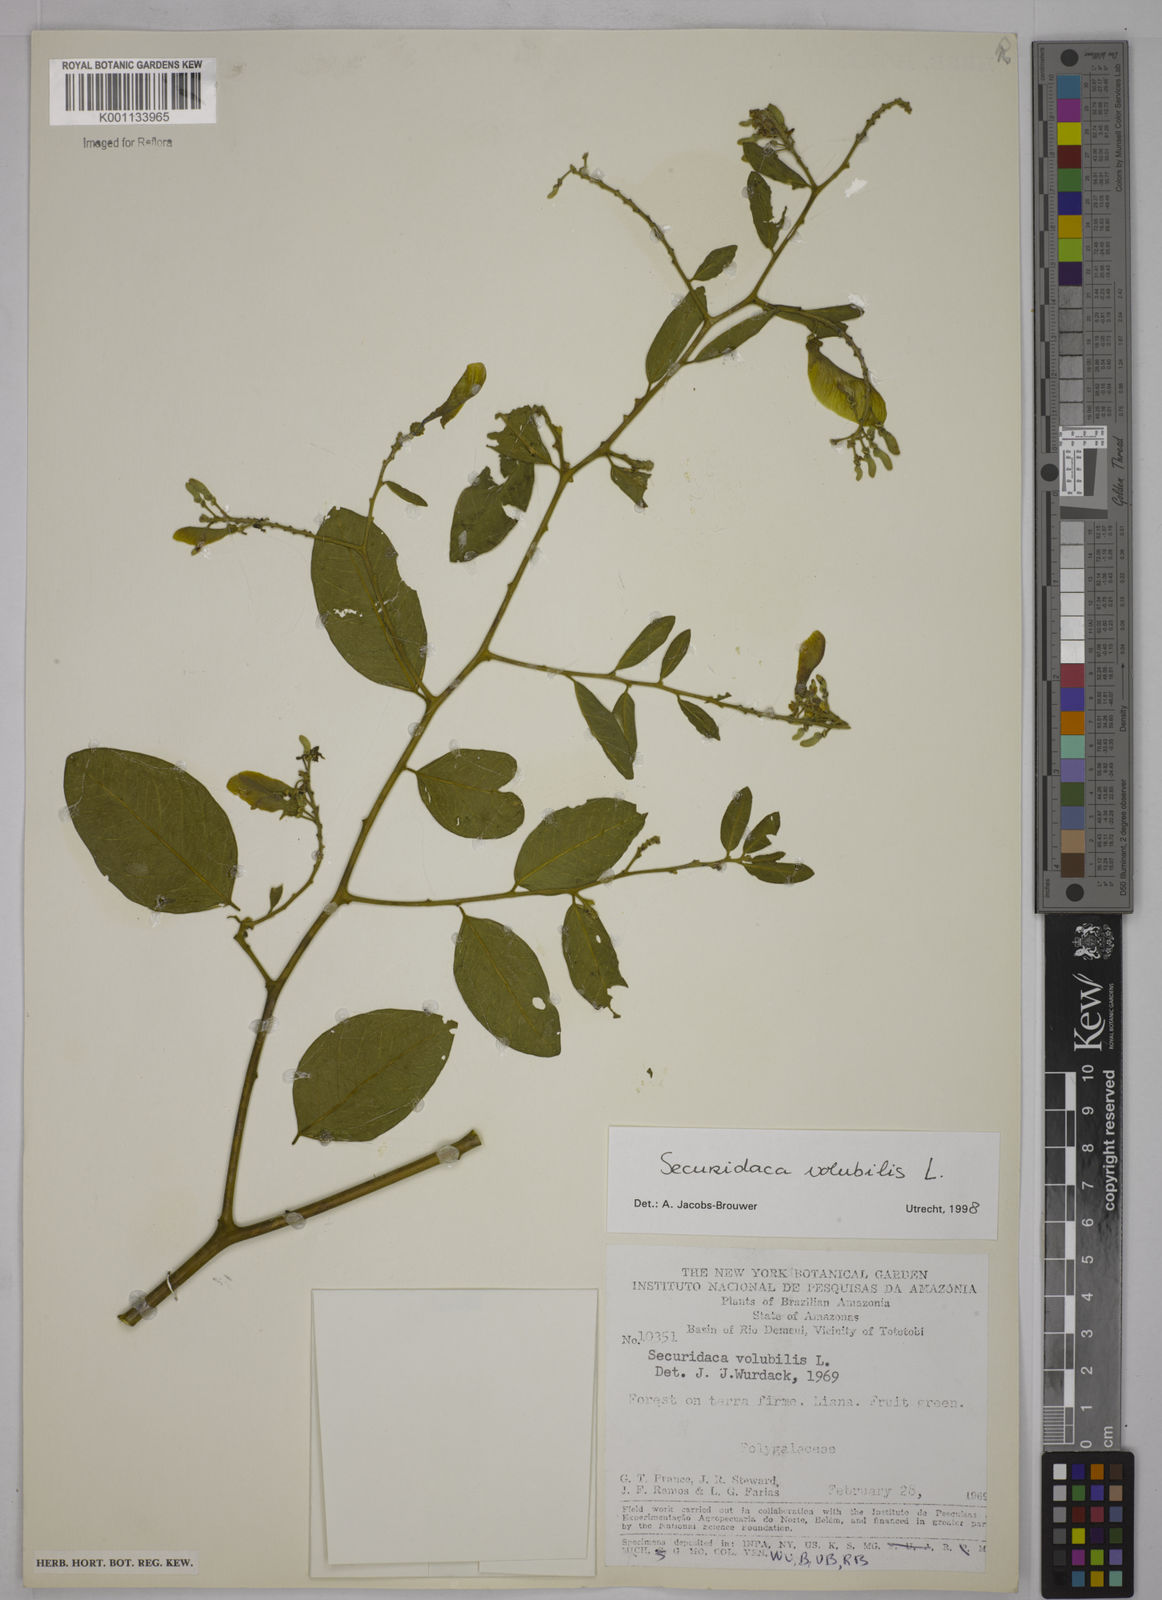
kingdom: Plantae
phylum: Tracheophyta
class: Magnoliopsida
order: Fabales
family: Polygalaceae
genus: Securidaca
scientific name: Securidaca diversifolia
